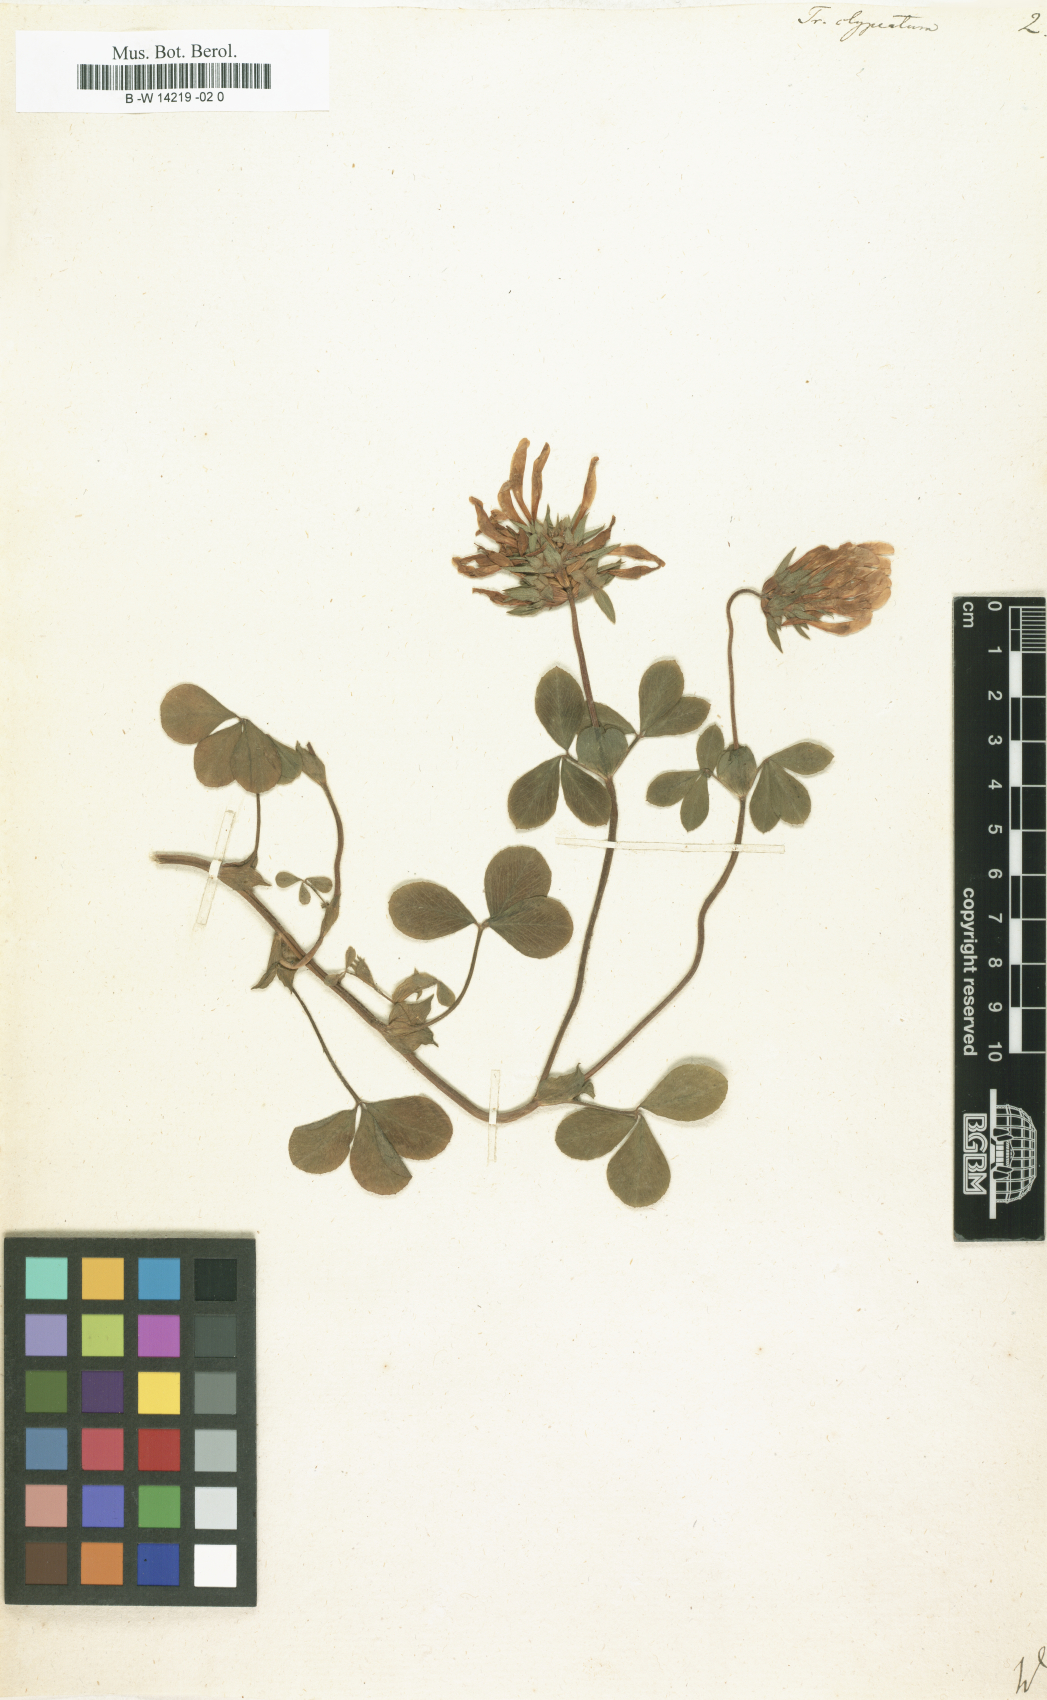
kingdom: Plantae
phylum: Tracheophyta
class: Magnoliopsida
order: Fabales
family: Fabaceae
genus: Trifolium
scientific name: Trifolium clypeatum
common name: Shield clover
